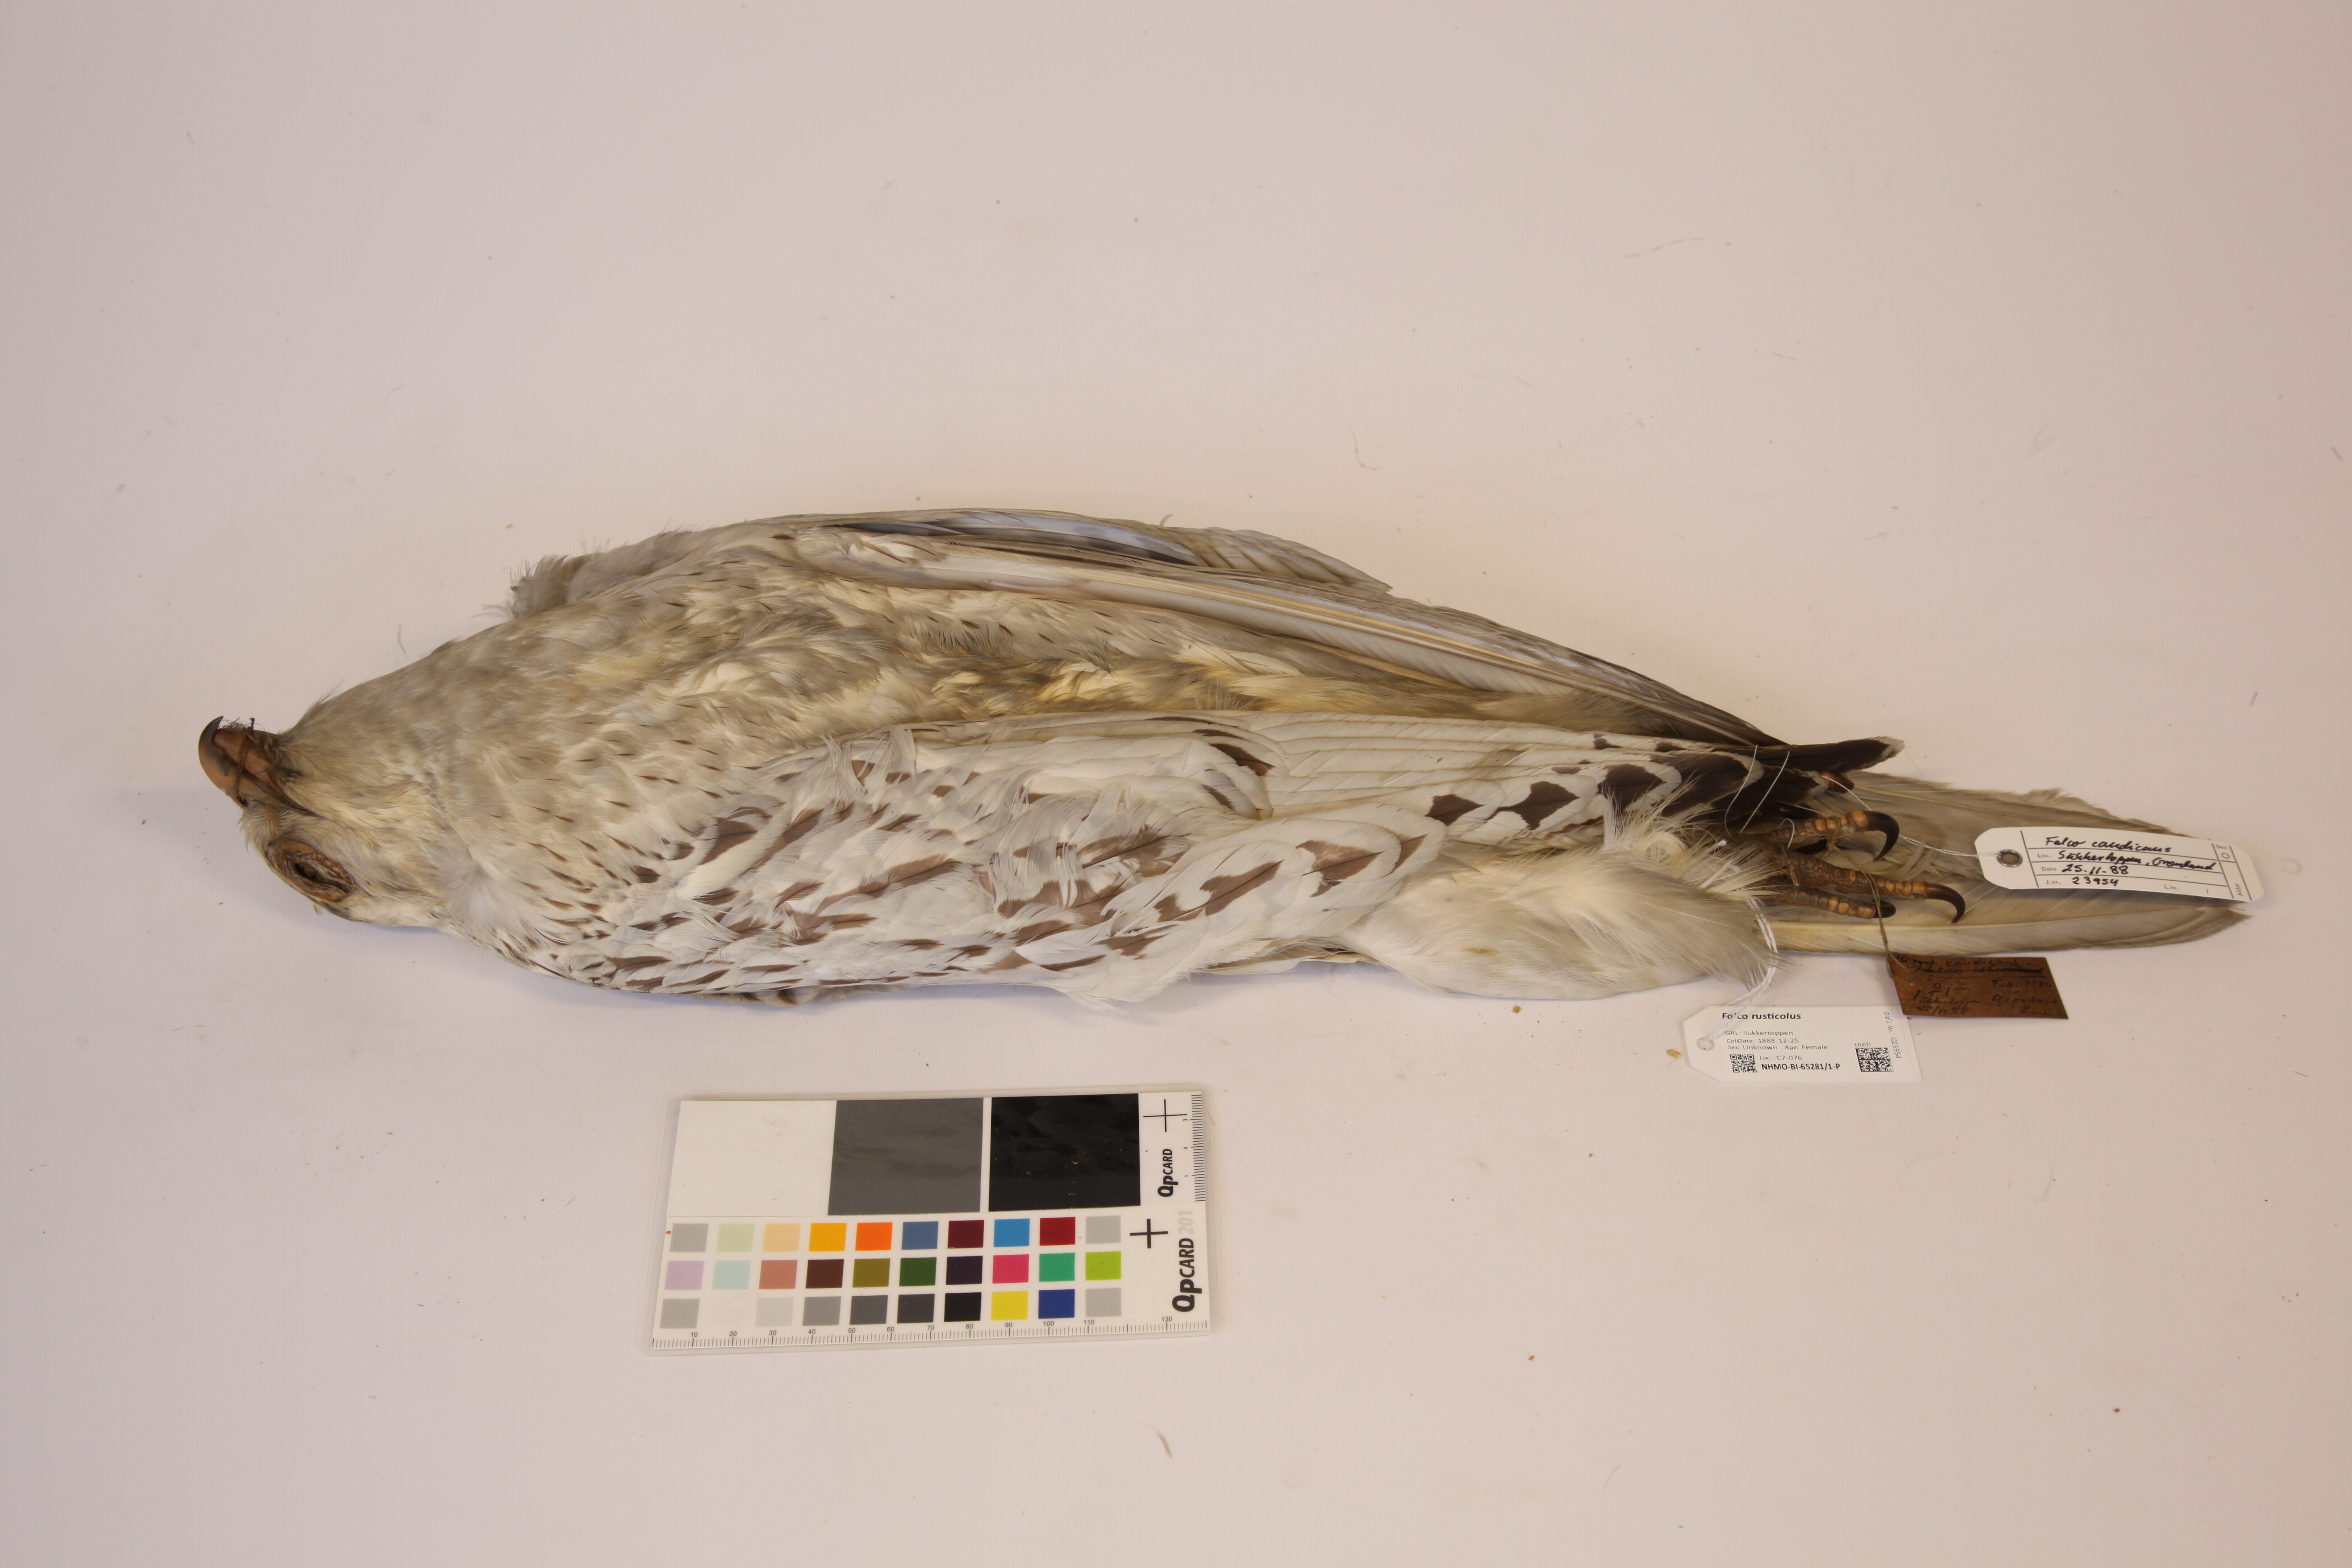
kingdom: Animalia
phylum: Chordata
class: Aves
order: Falconiformes
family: Falconidae
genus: Falco
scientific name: Falco rusticolus
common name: Gyrfalcon
